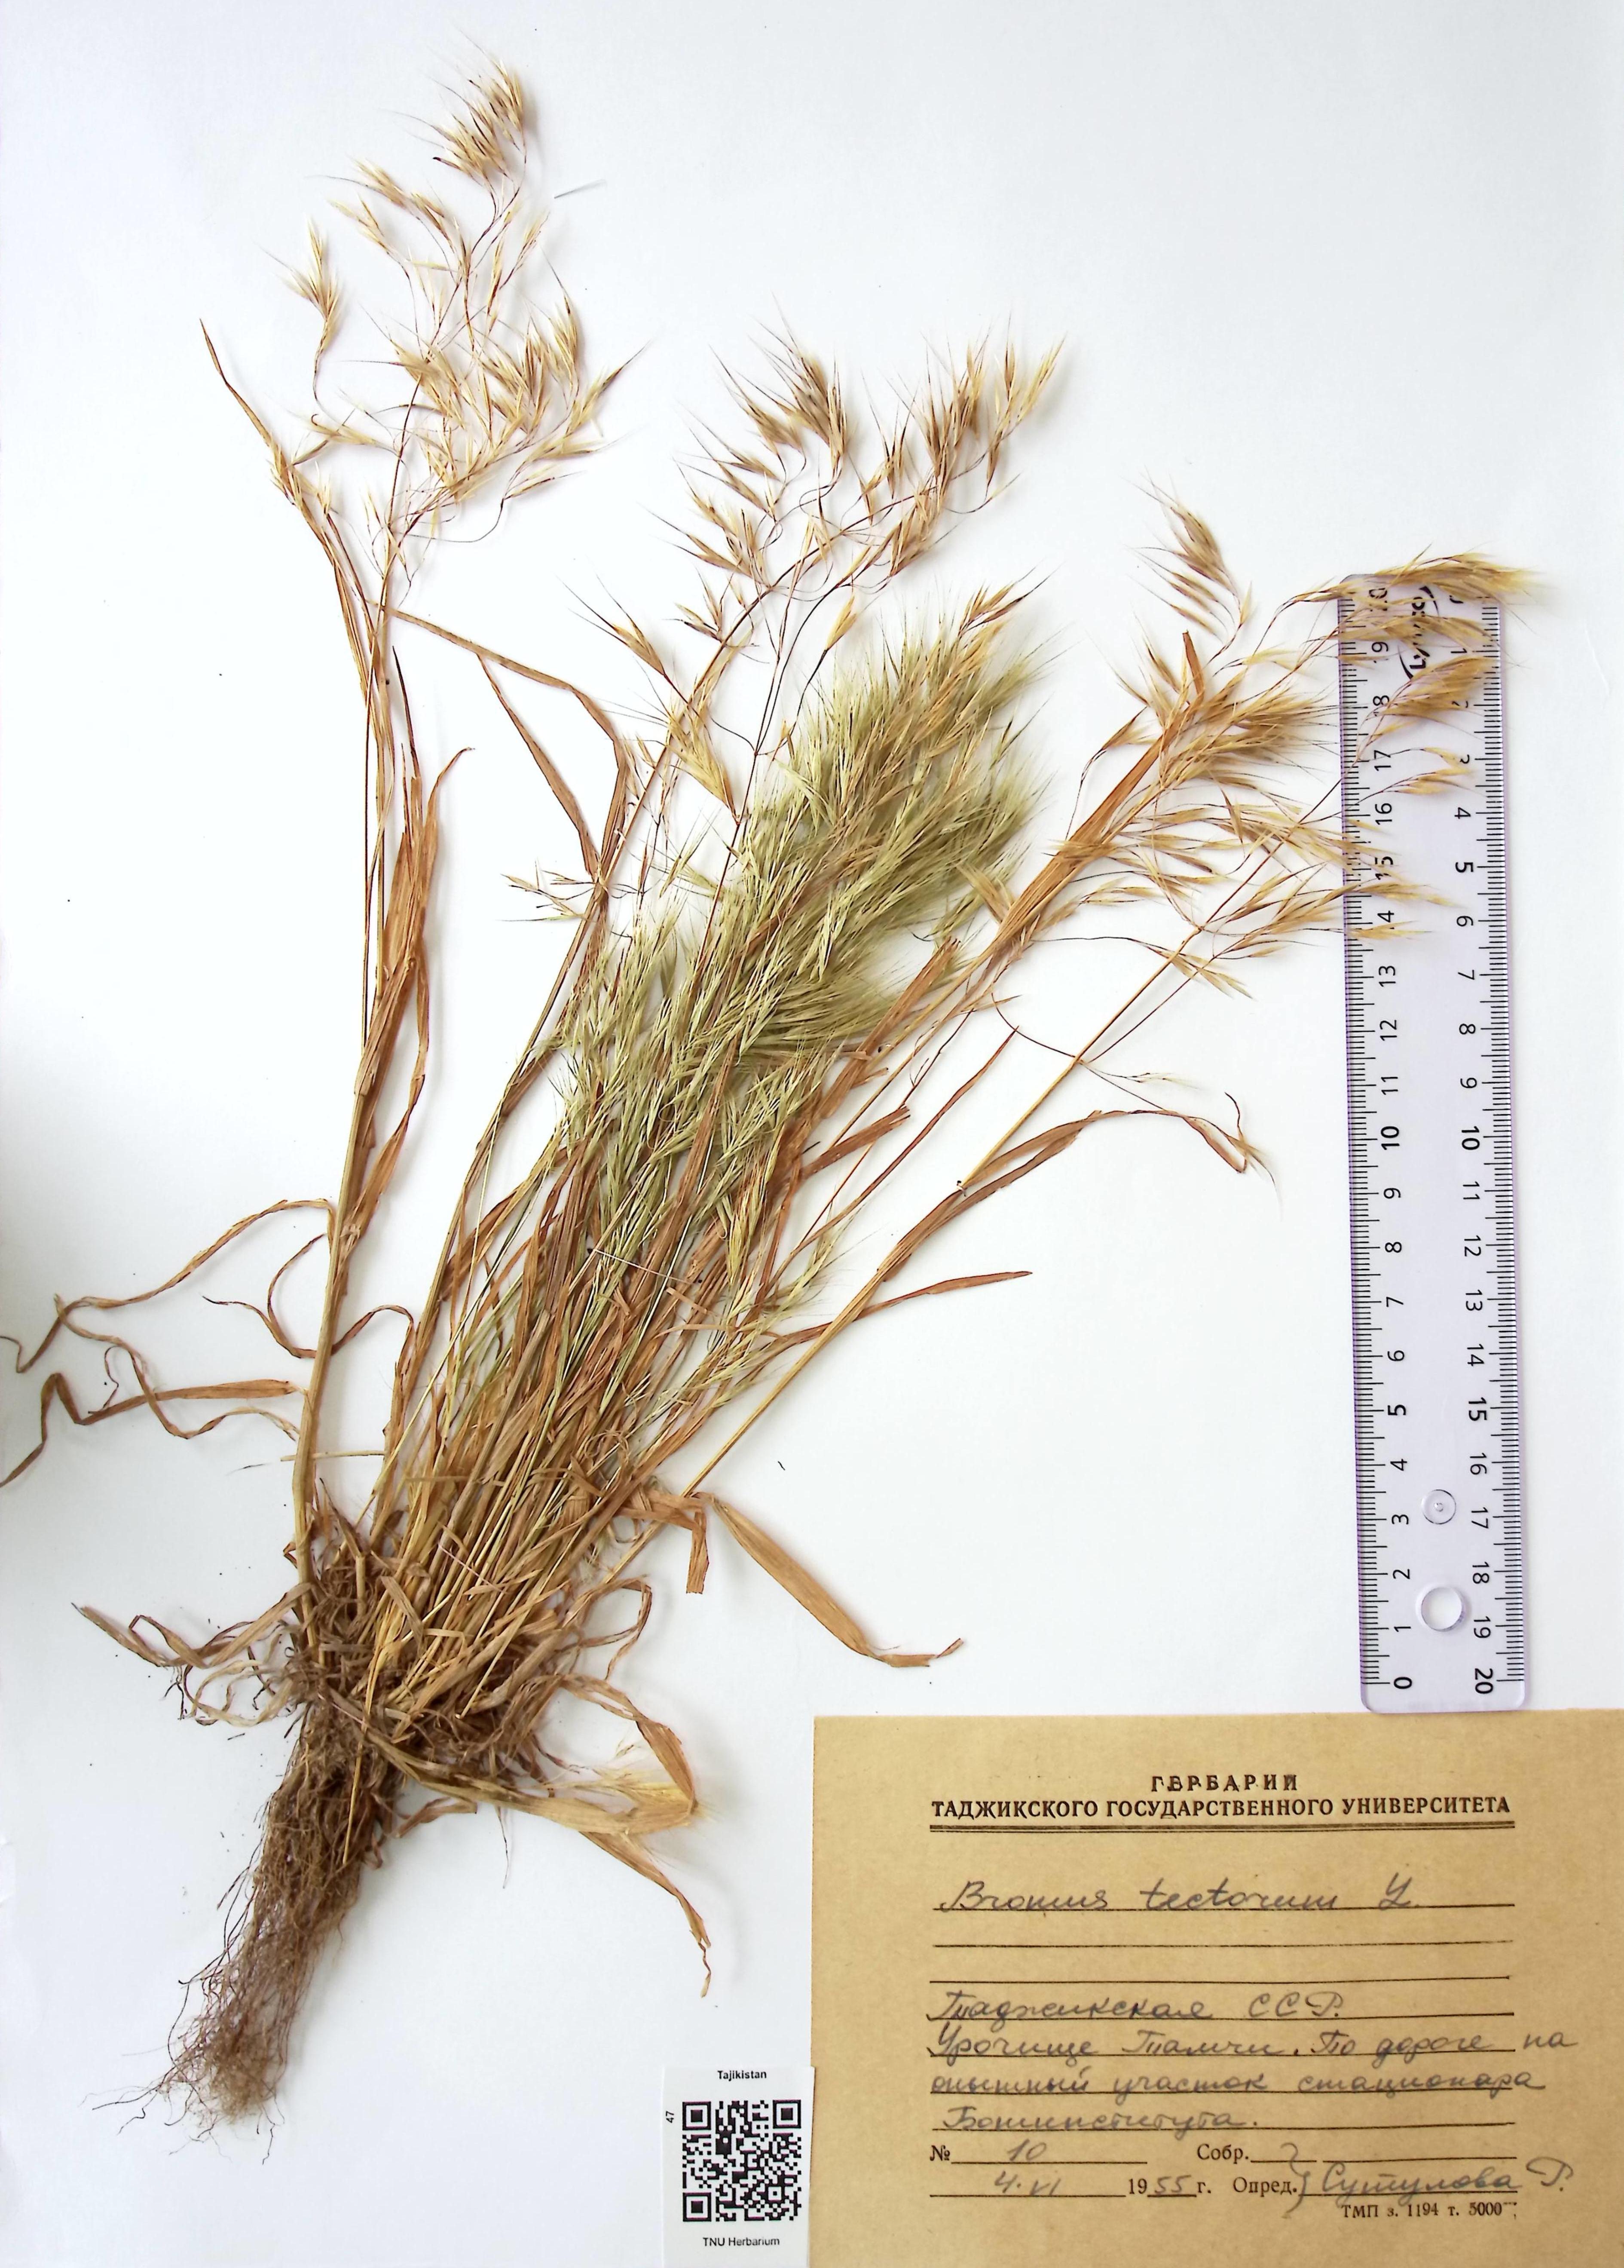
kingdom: Plantae
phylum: Tracheophyta
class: Liliopsida
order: Poales
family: Poaceae
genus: Bromus
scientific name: Bromus tectorum
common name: Cheatgrass
